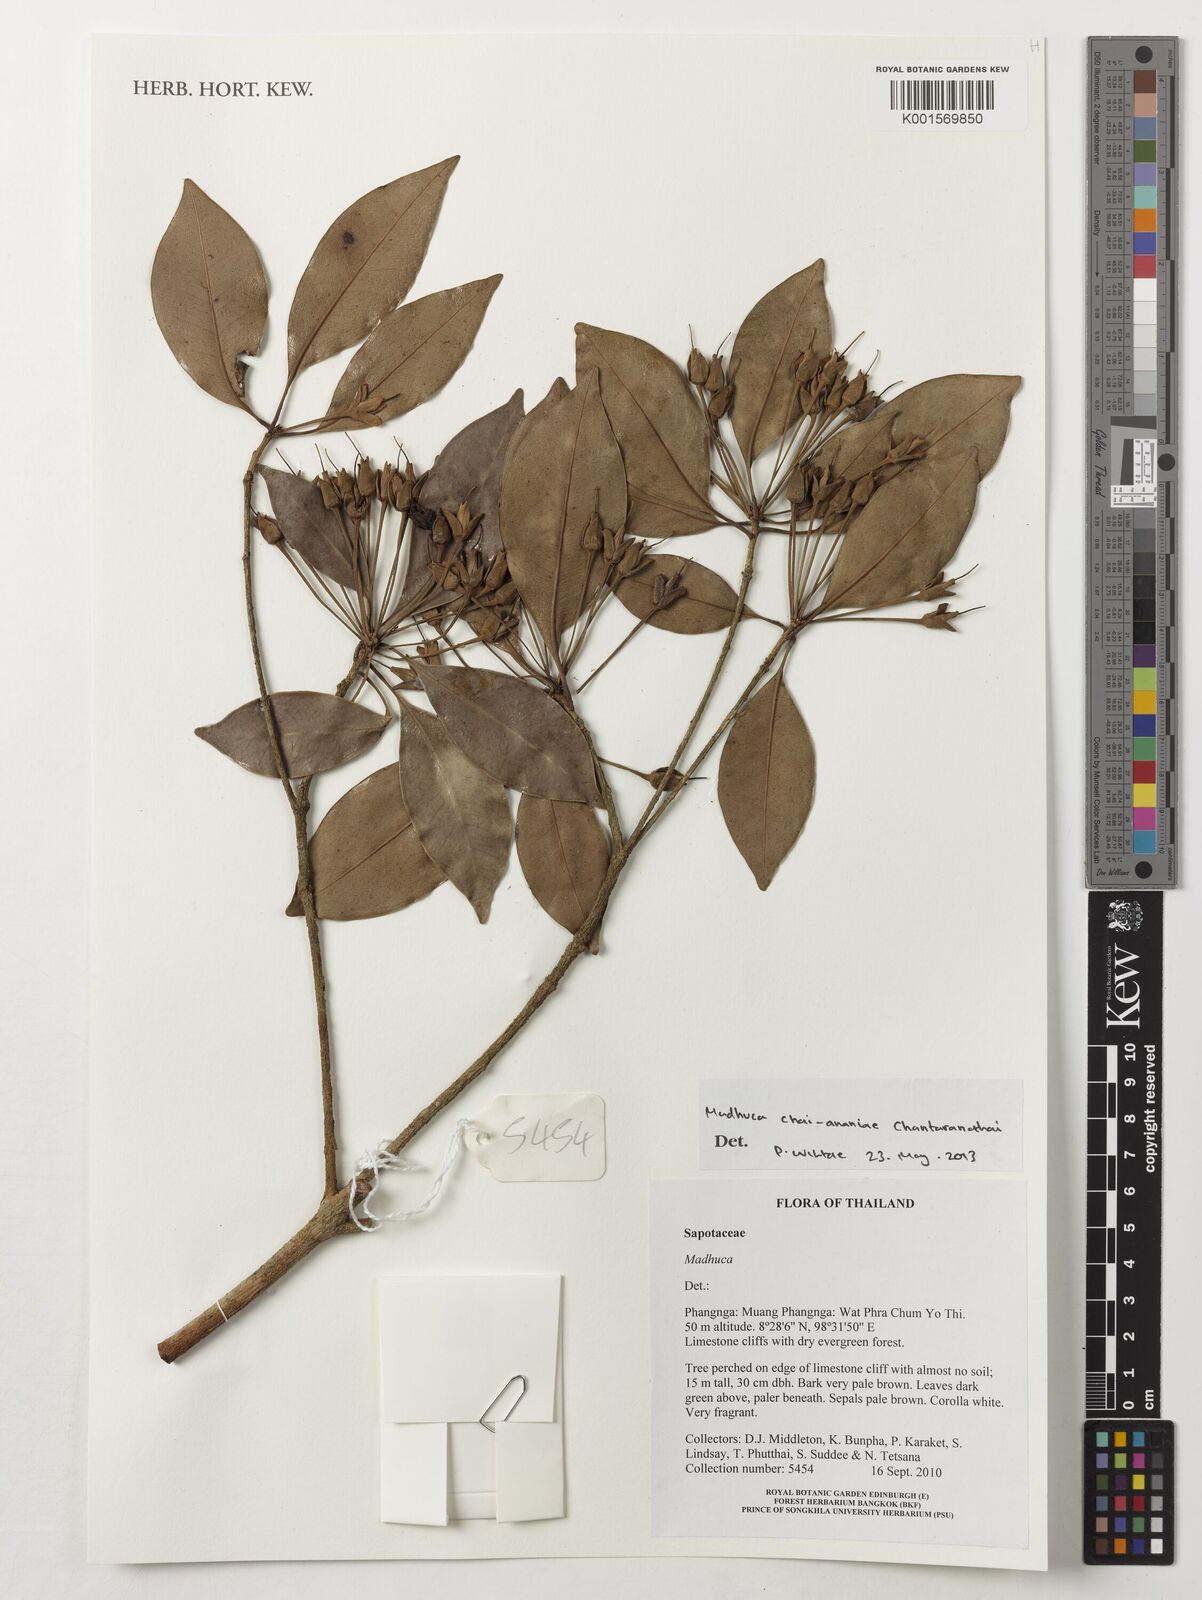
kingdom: Plantae
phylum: Tracheophyta
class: Magnoliopsida
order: Ericales
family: Sapotaceae
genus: Madhuca
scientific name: Madhuca chai-ananii
